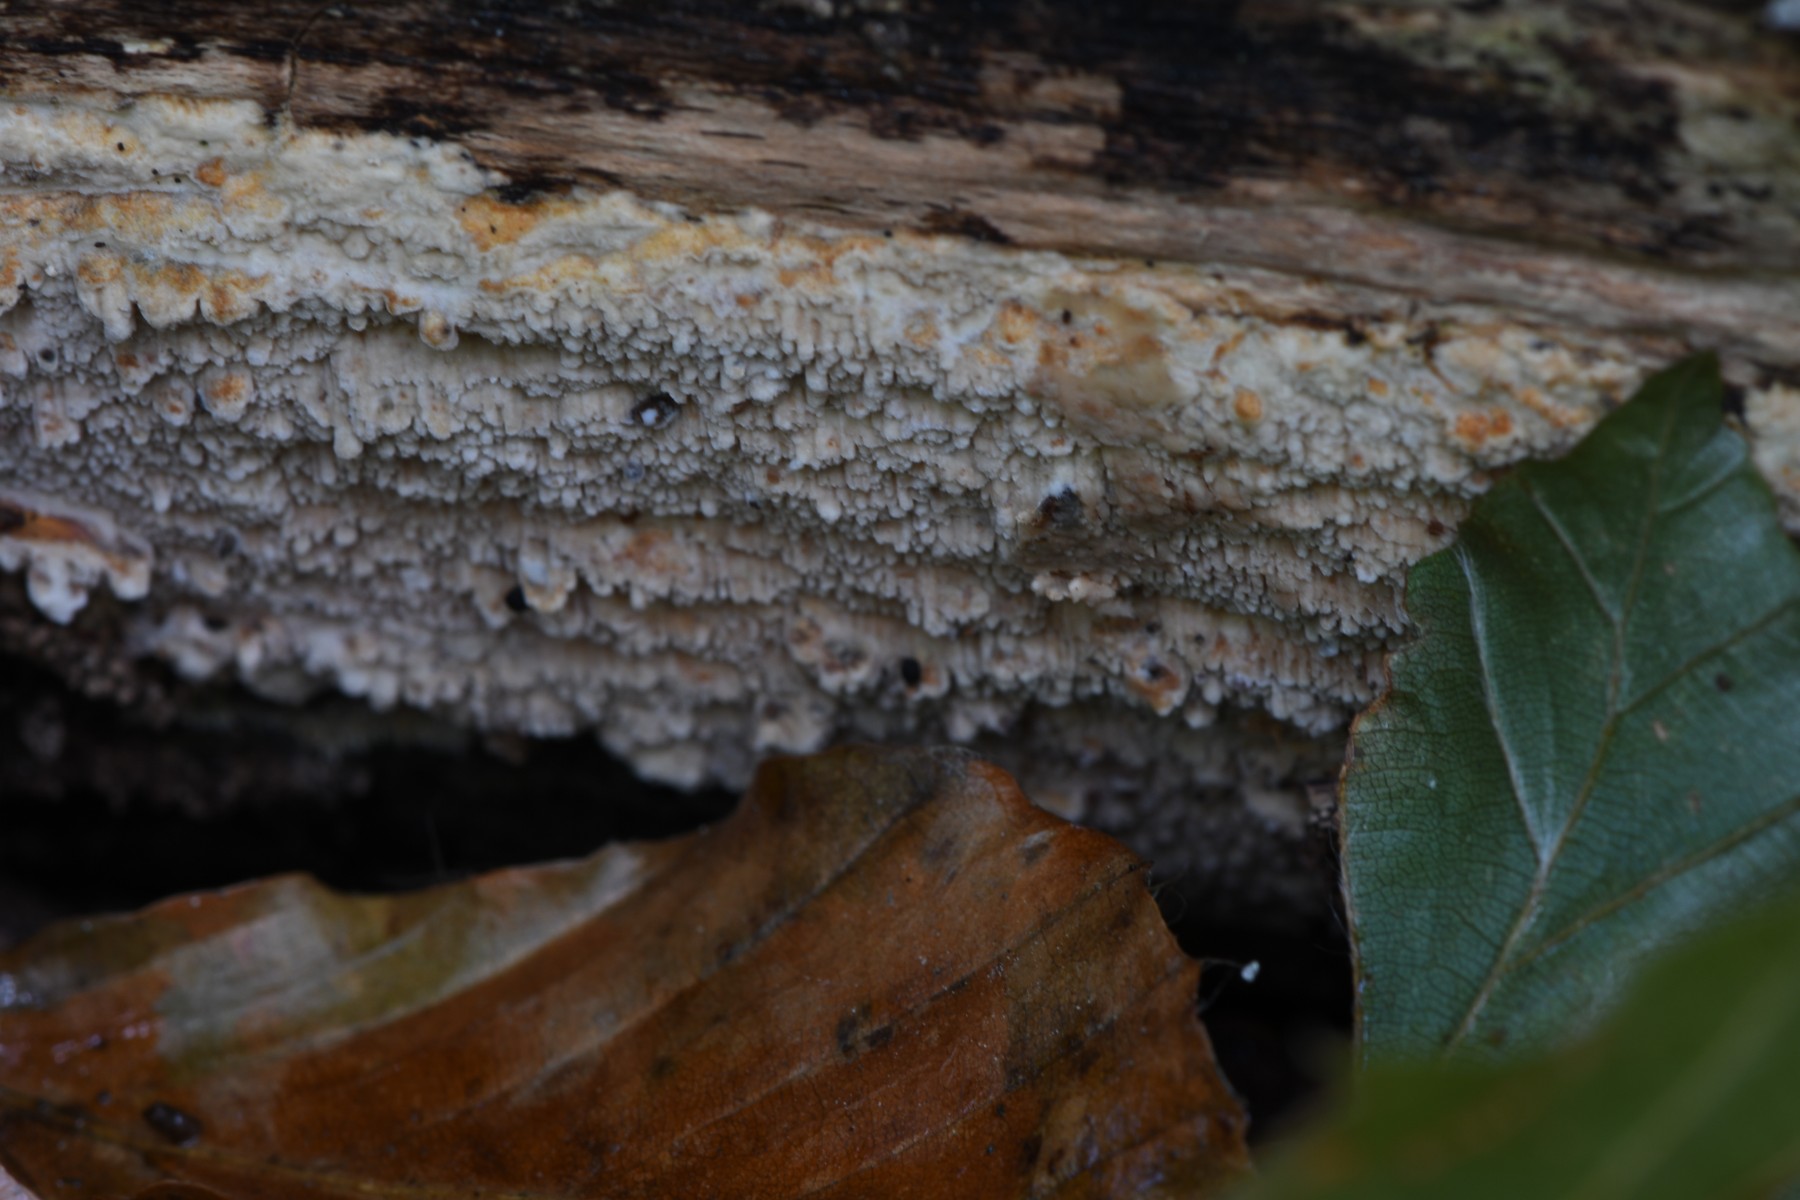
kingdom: Fungi
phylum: Basidiomycota
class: Agaricomycetes
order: Corticiales
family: Corticiaceae
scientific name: Corticiaceae
